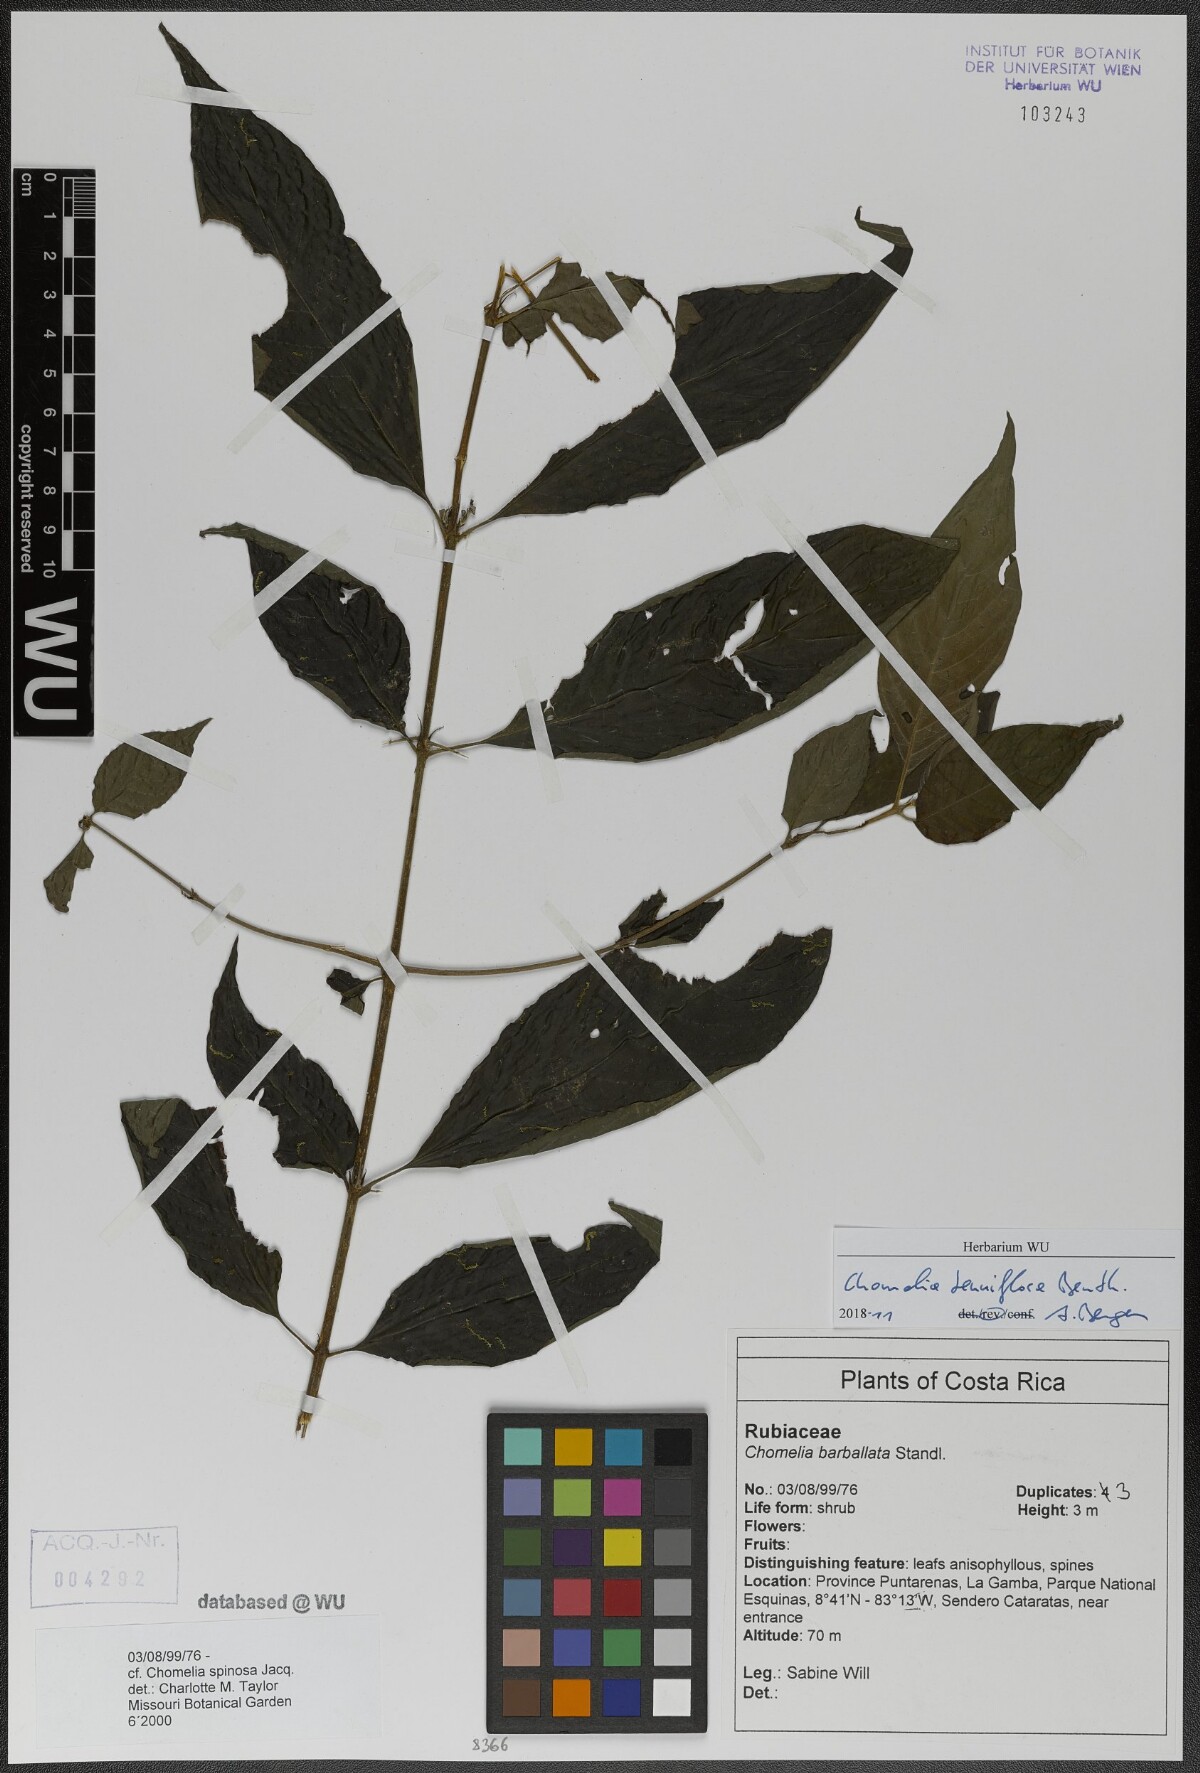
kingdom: Plantae
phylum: Tracheophyta
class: Magnoliopsida
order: Gentianales
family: Rubiaceae
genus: Chomelia
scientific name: Chomelia tenuiflora
